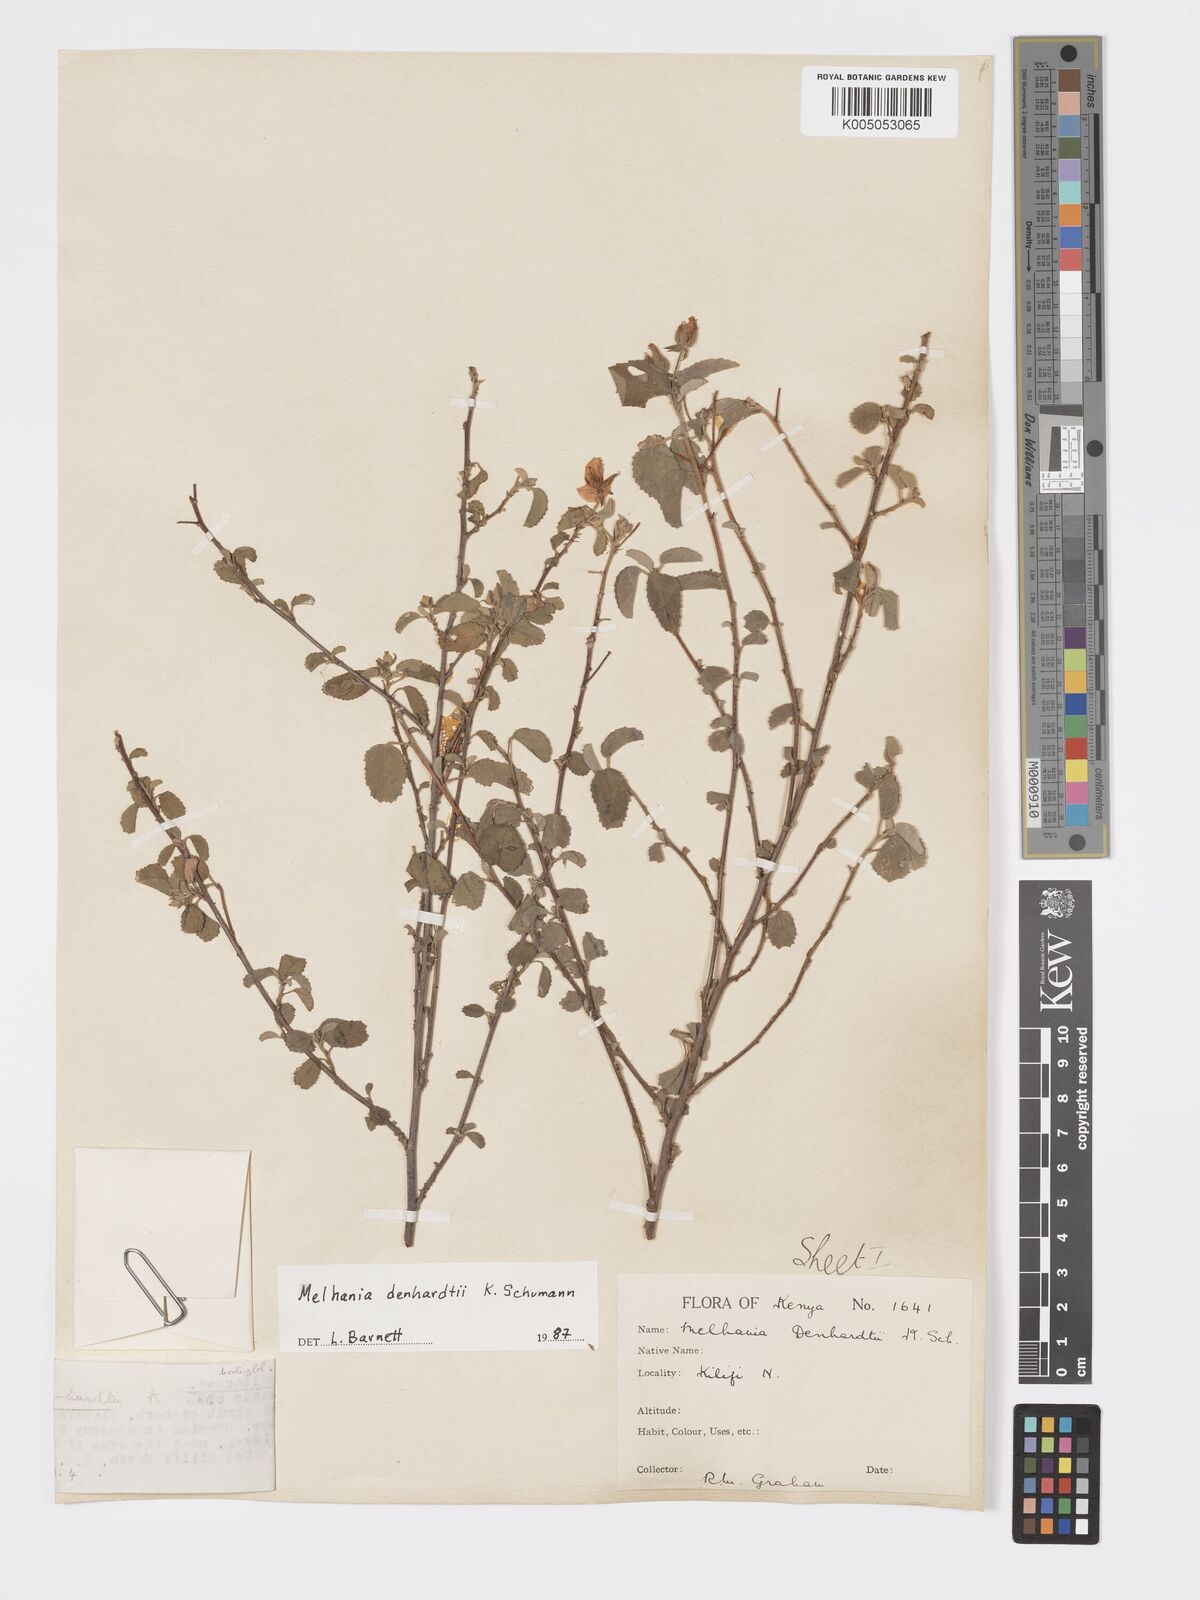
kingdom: Plantae
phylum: Tracheophyta
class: Magnoliopsida
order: Malvales
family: Malvaceae
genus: Melhania
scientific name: Melhania dehnhardtii
